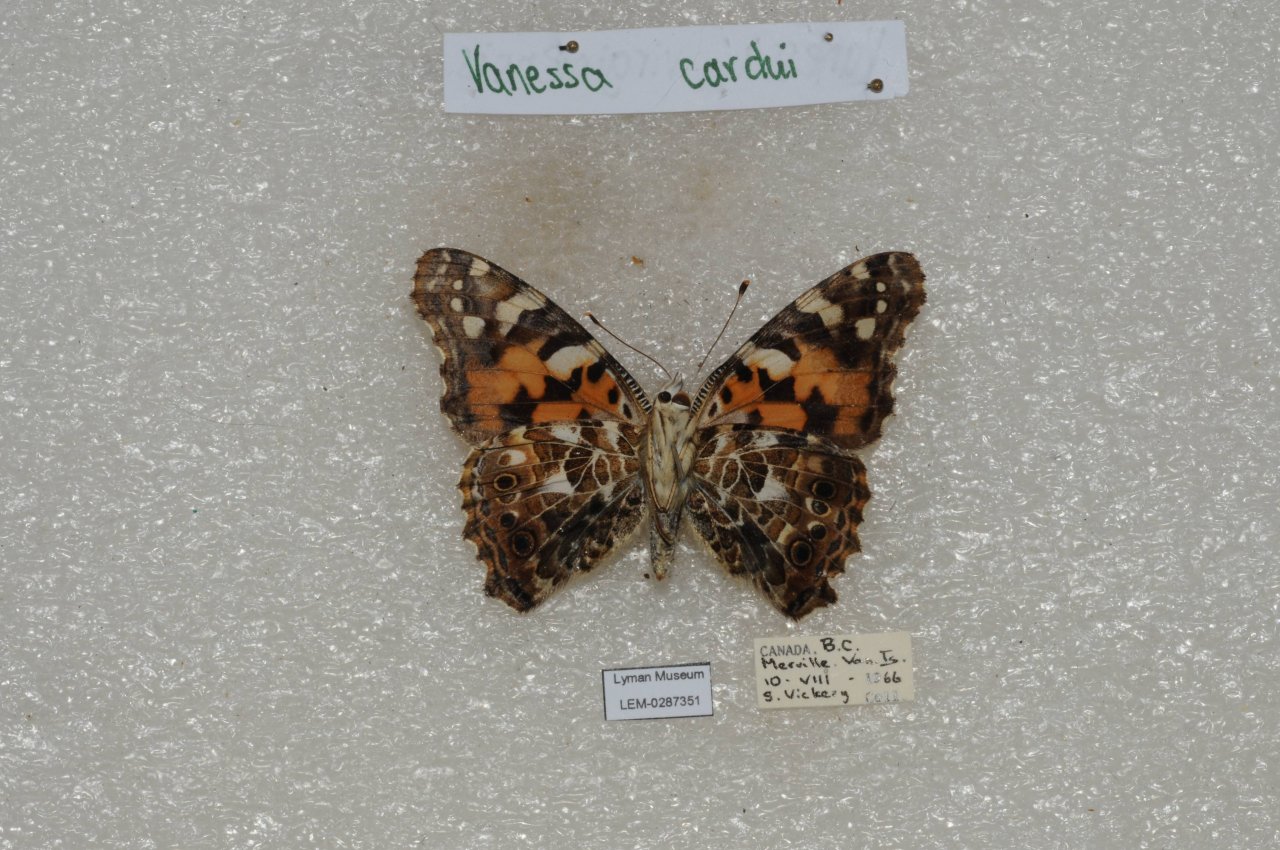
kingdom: Animalia
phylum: Arthropoda
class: Insecta
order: Lepidoptera
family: Nymphalidae
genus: Vanessa
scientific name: Vanessa cardui
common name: Painted Lady
